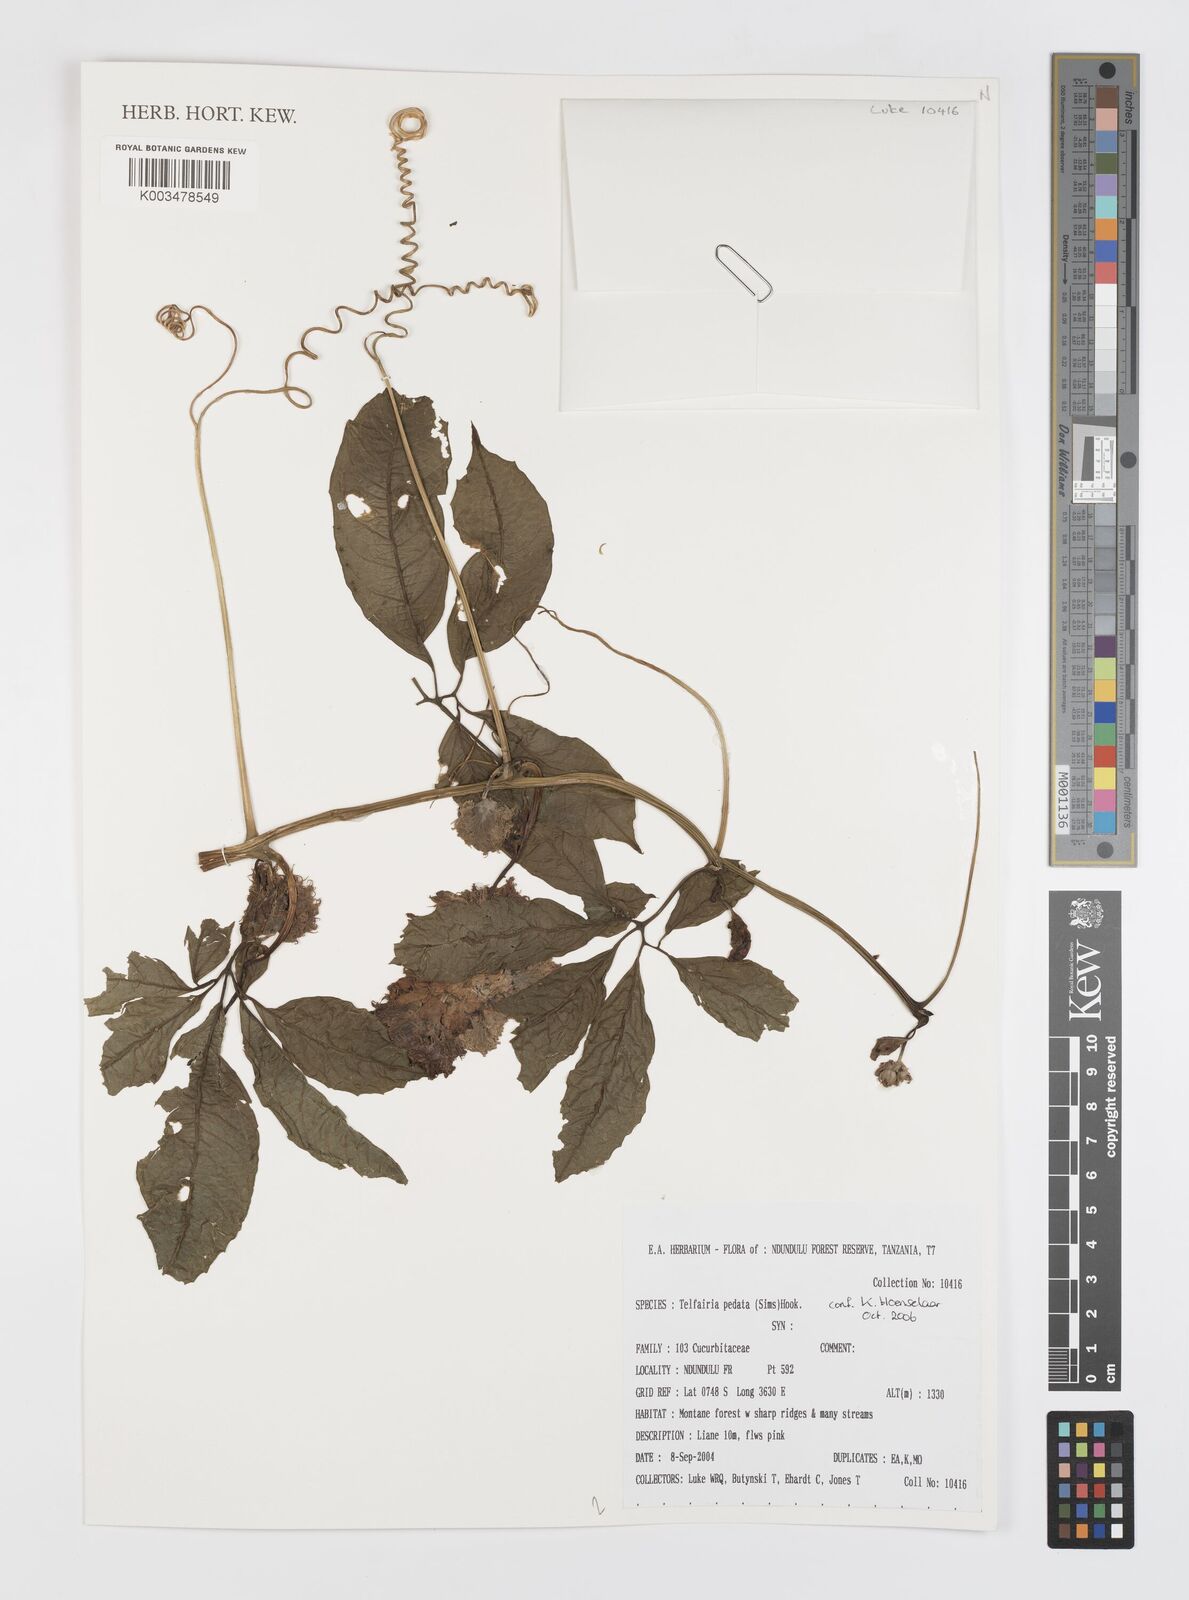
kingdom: Plantae
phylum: Tracheophyta
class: Magnoliopsida
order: Cucurbitales
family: Cucurbitaceae
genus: Telfairia
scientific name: Telfairia pedata
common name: Zanzibar oilvine
